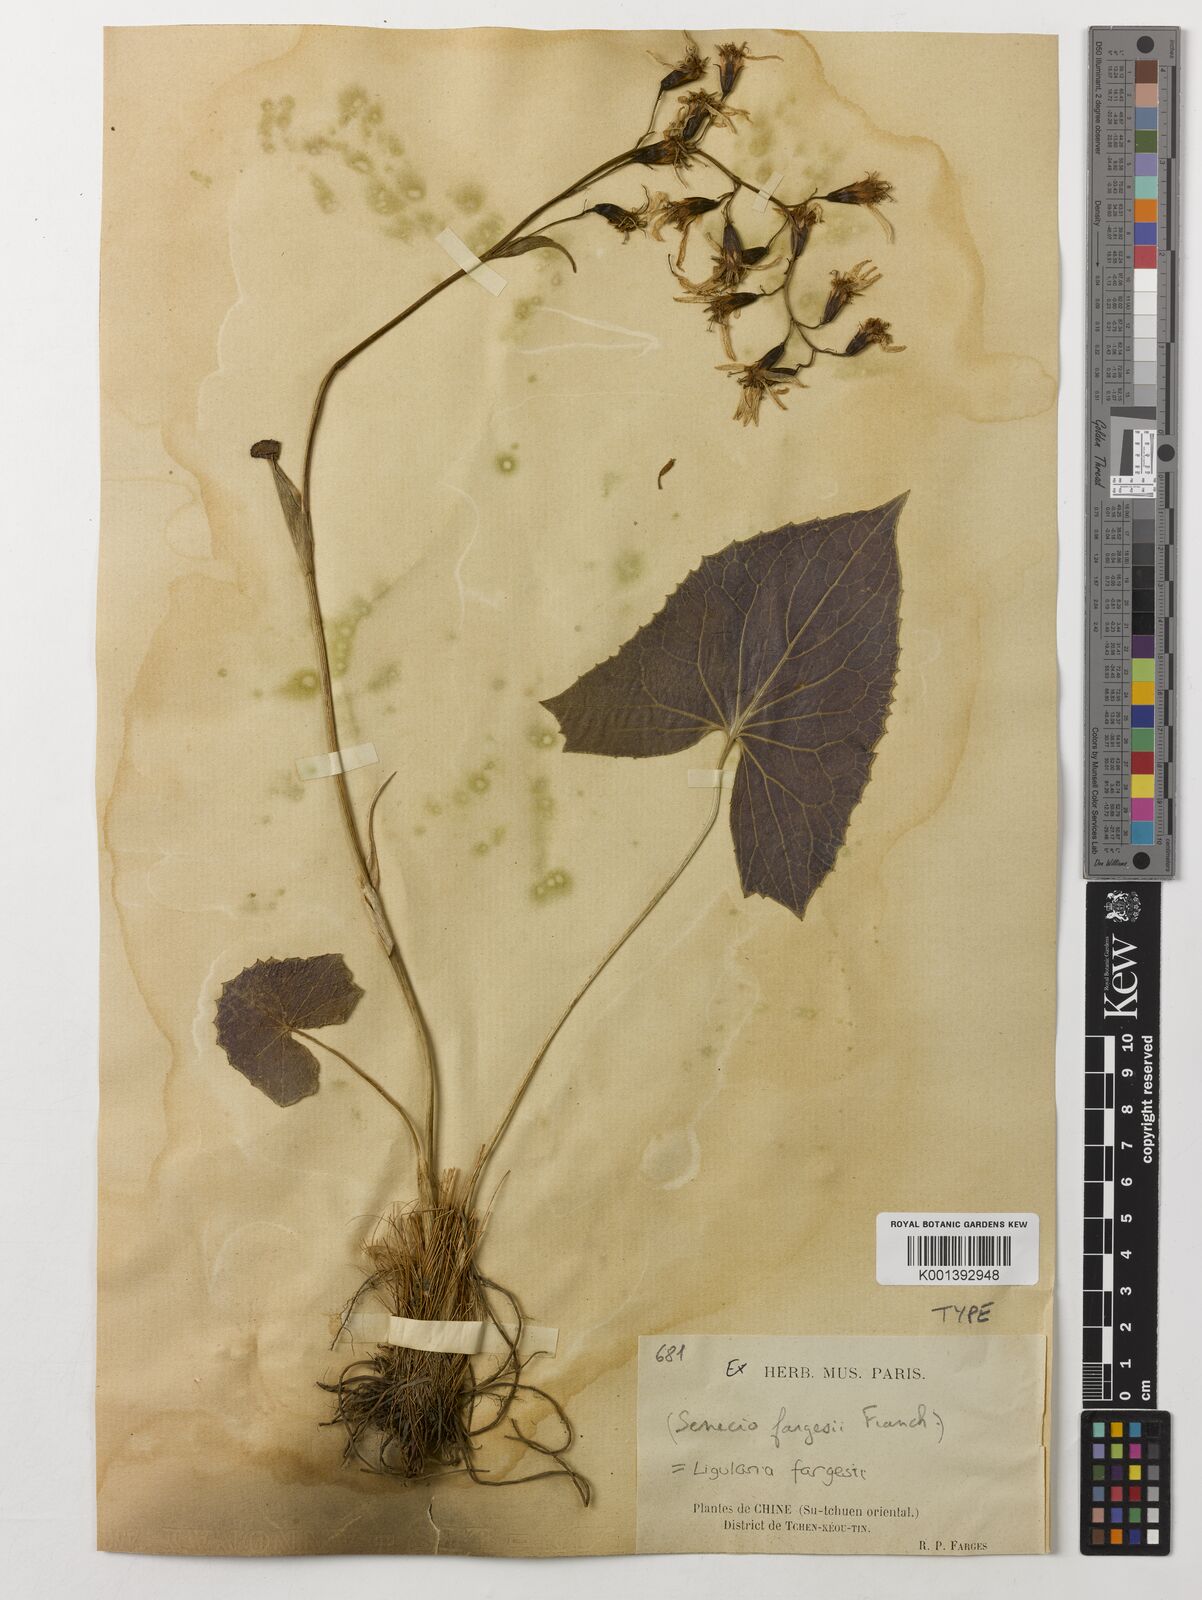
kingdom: Plantae
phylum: Tracheophyta
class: Magnoliopsida
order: Asterales
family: Asteraceae
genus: Ligularia
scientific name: Ligularia fargesii
